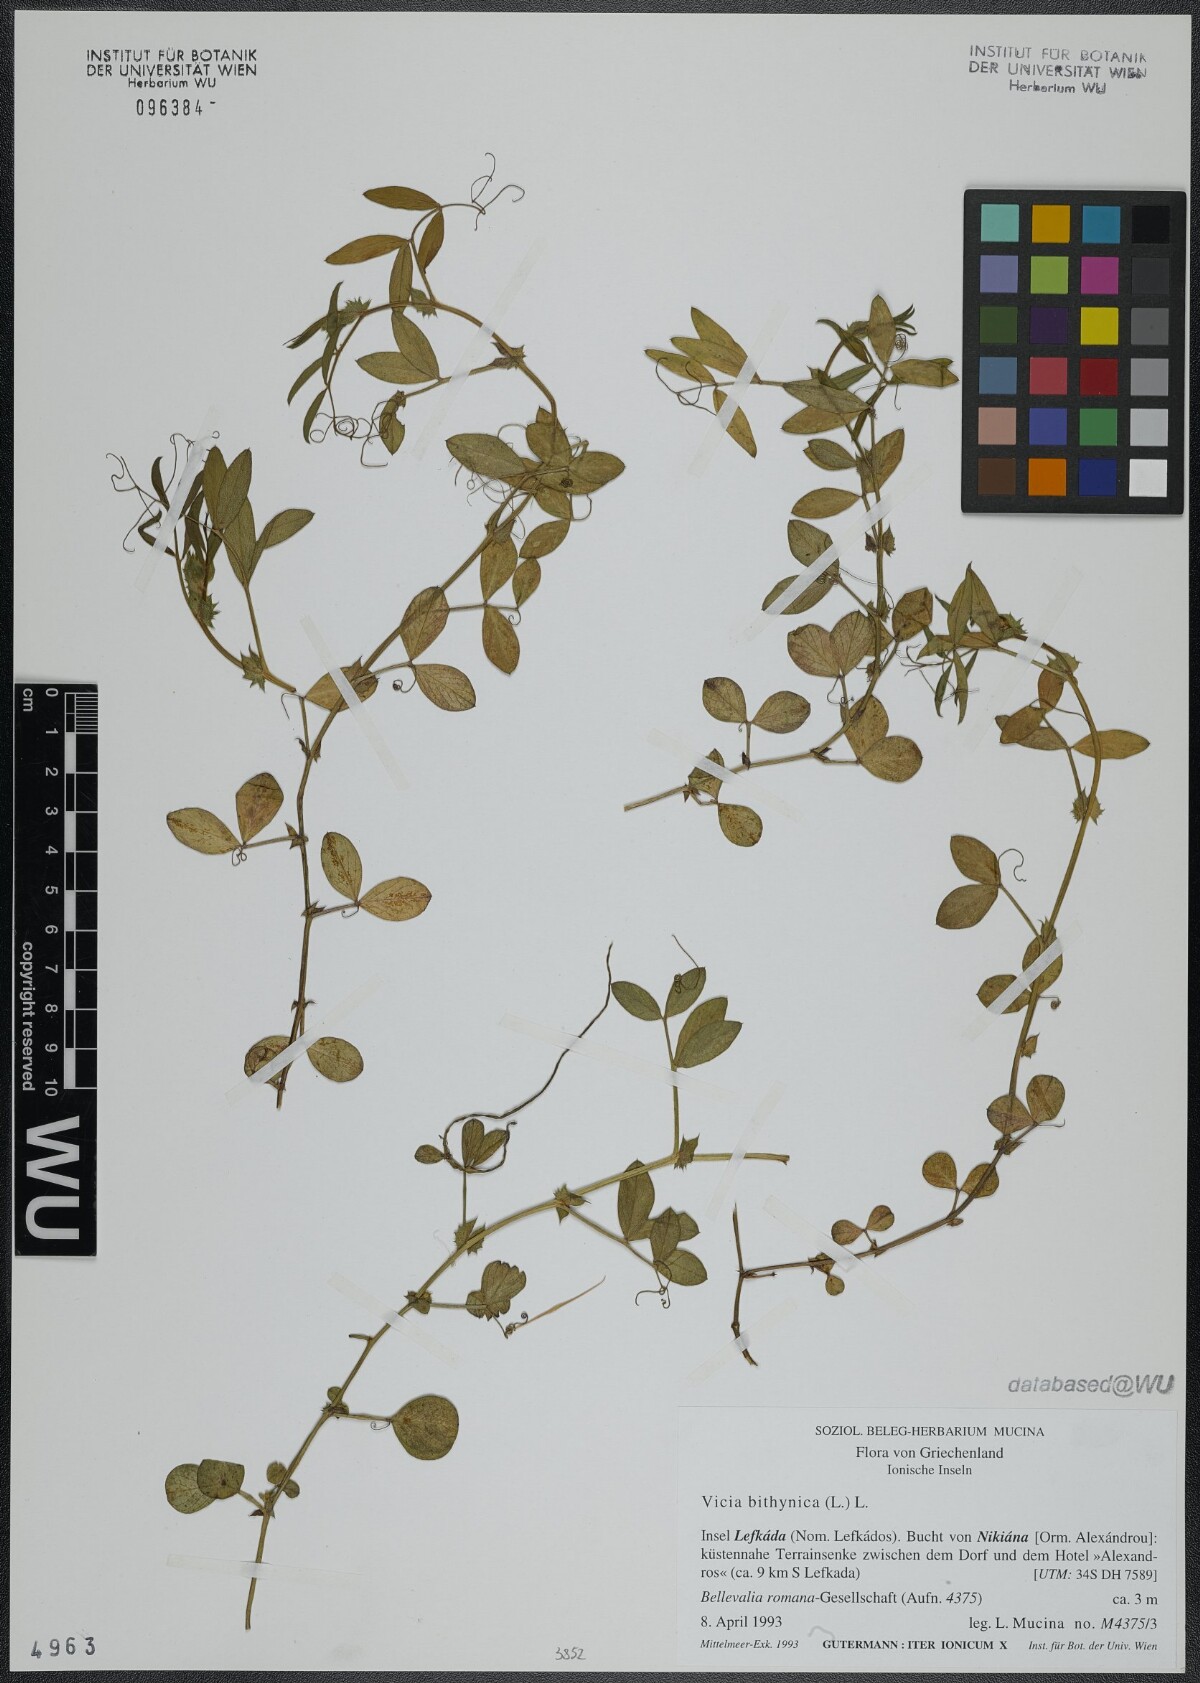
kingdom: Plantae
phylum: Tracheophyta
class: Magnoliopsida
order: Fabales
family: Fabaceae
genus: Vicia
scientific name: Vicia bithynica
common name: Bithynian vetch
